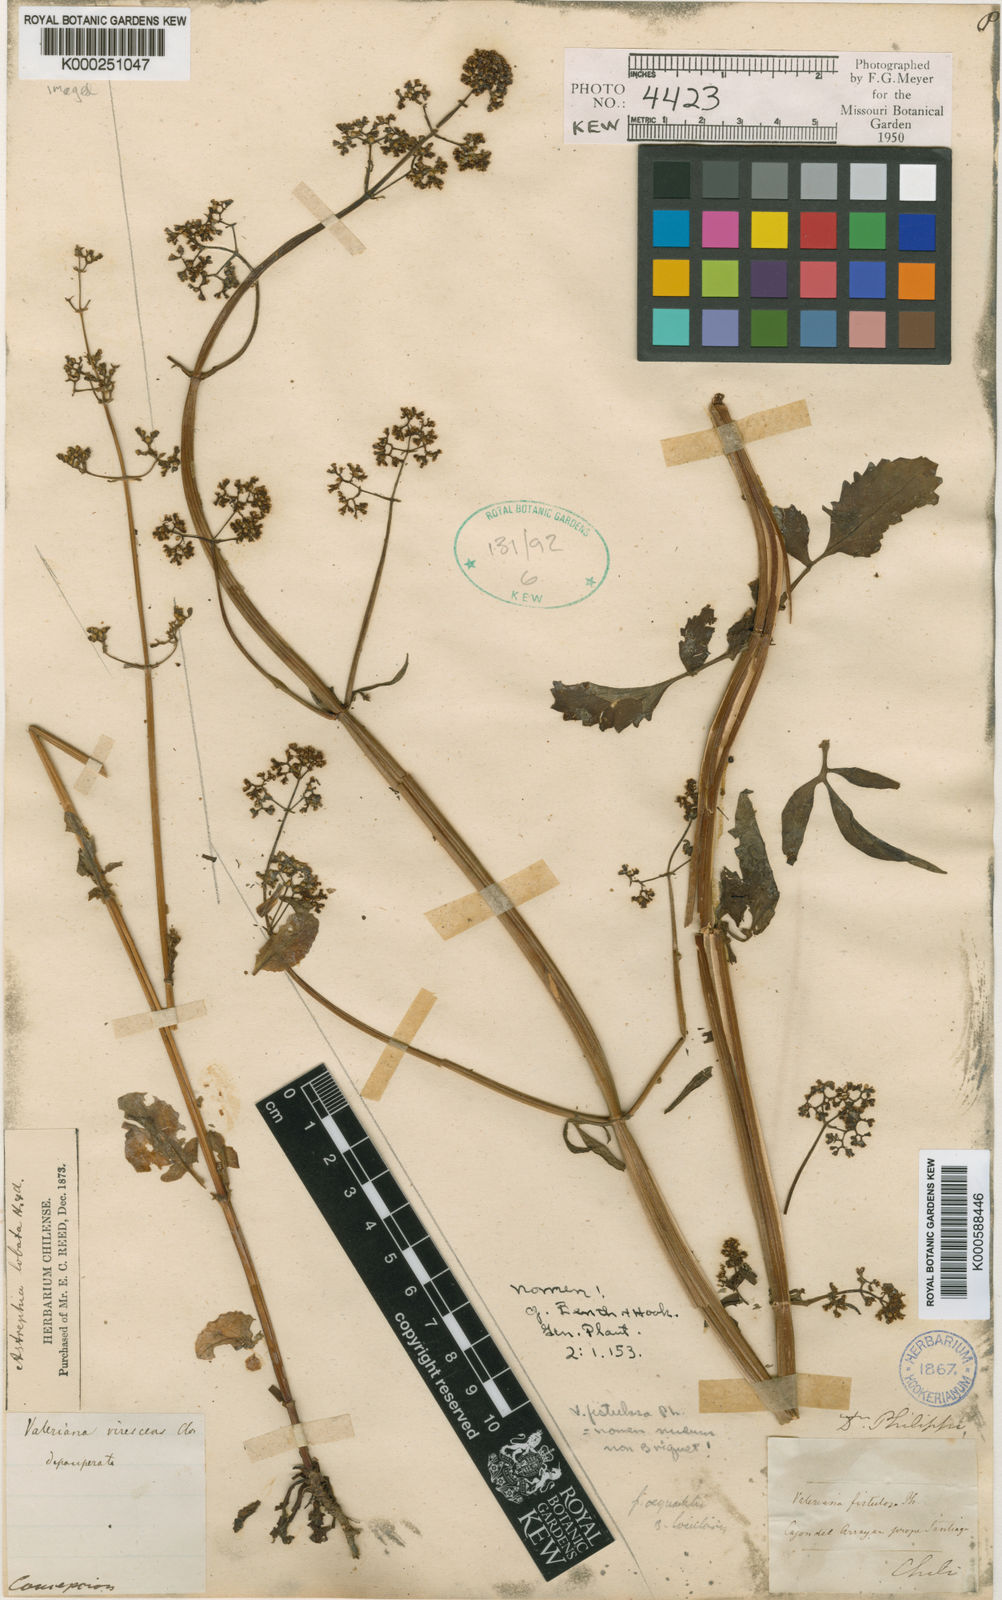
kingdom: Plantae
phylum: Tracheophyta
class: Magnoliopsida
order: Dipsacales
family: Caprifoliaceae
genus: Valeriana
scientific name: Valeriana crispa
